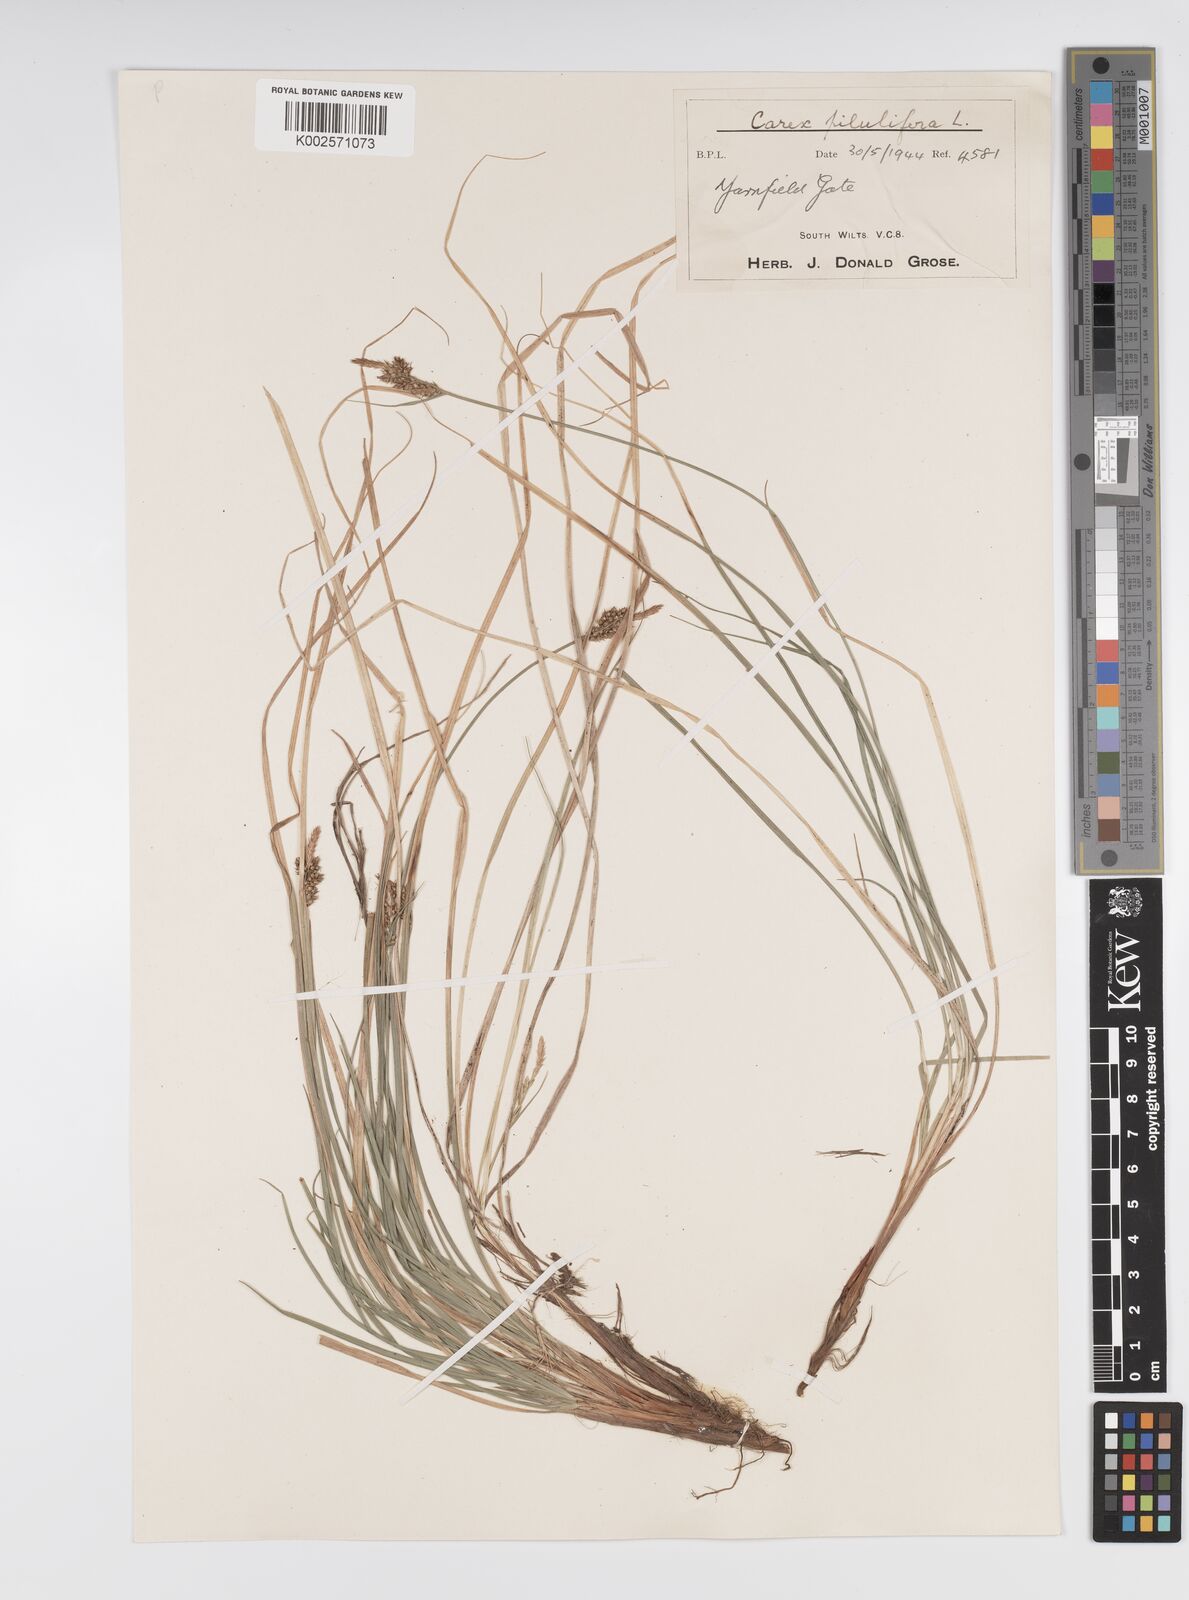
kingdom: Plantae
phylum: Tracheophyta
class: Liliopsida
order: Poales
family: Cyperaceae
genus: Carex
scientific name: Carex pilulifera
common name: Pill sedge
